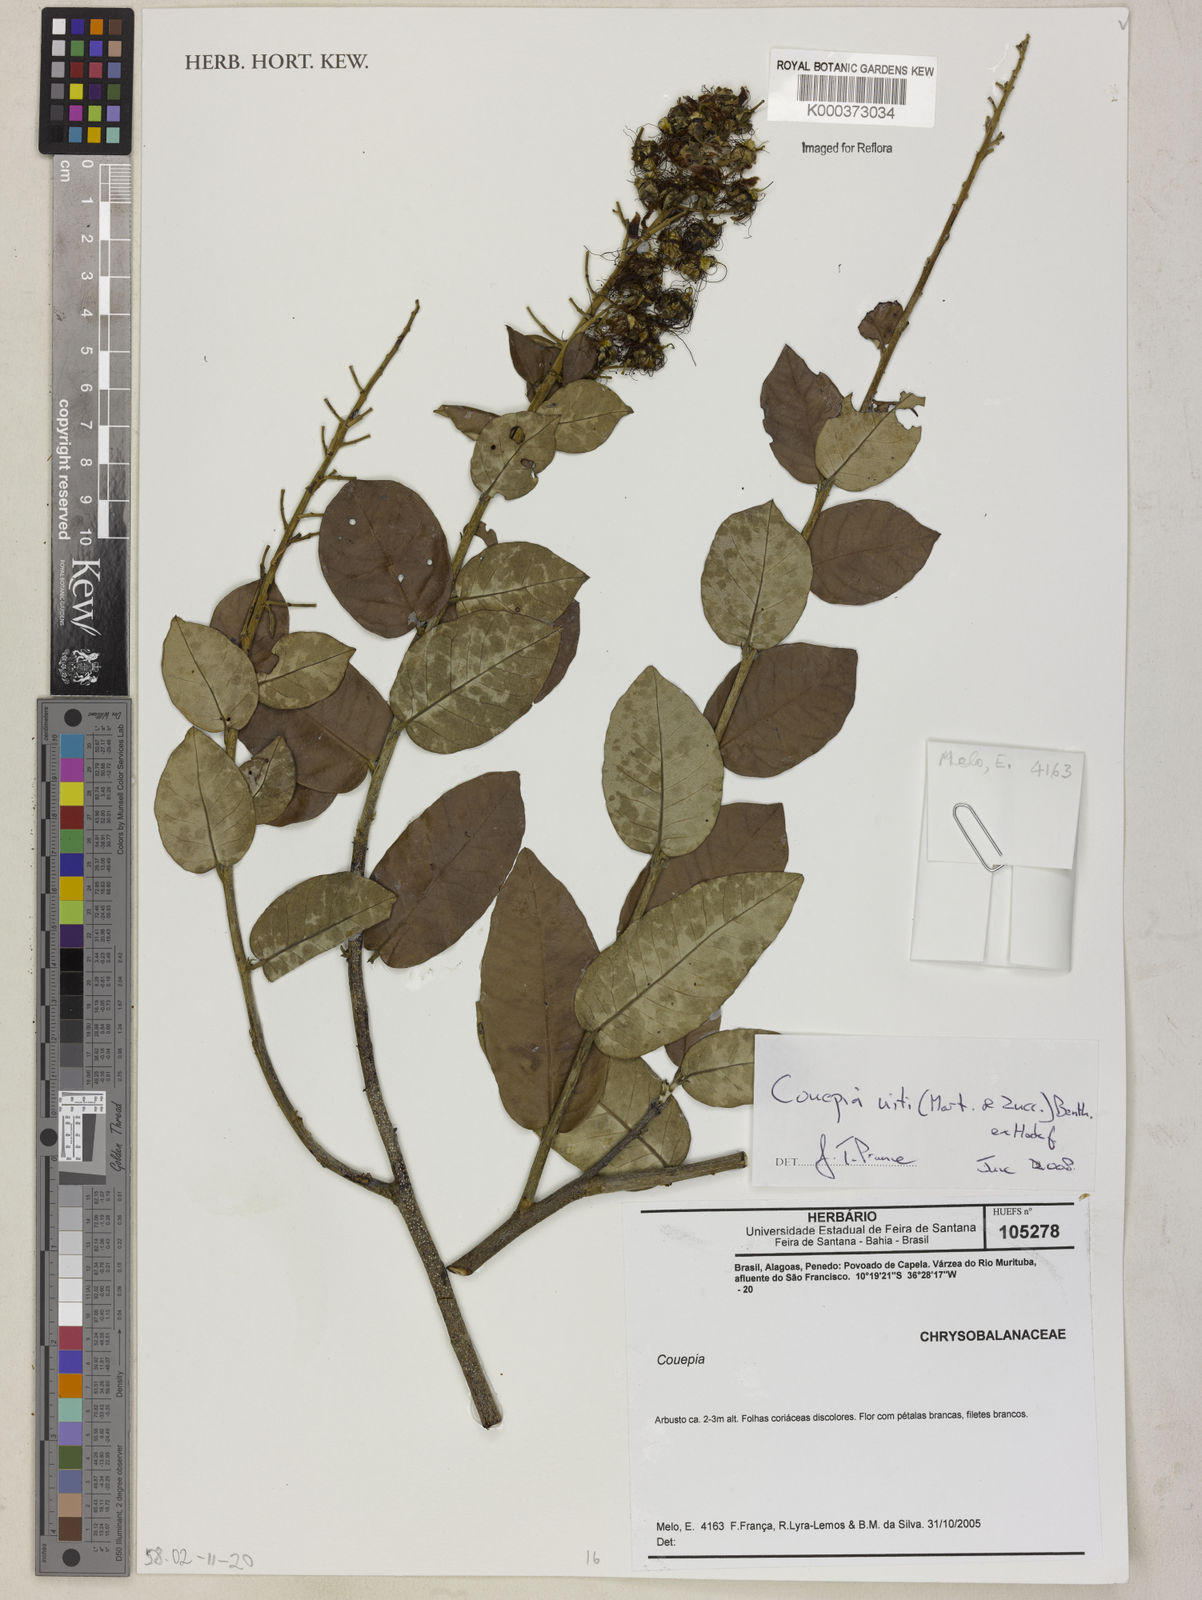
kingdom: Plantae
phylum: Tracheophyta
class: Magnoliopsida
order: Malpighiales
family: Chrysobalanaceae
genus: Couepia
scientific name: Couepia
